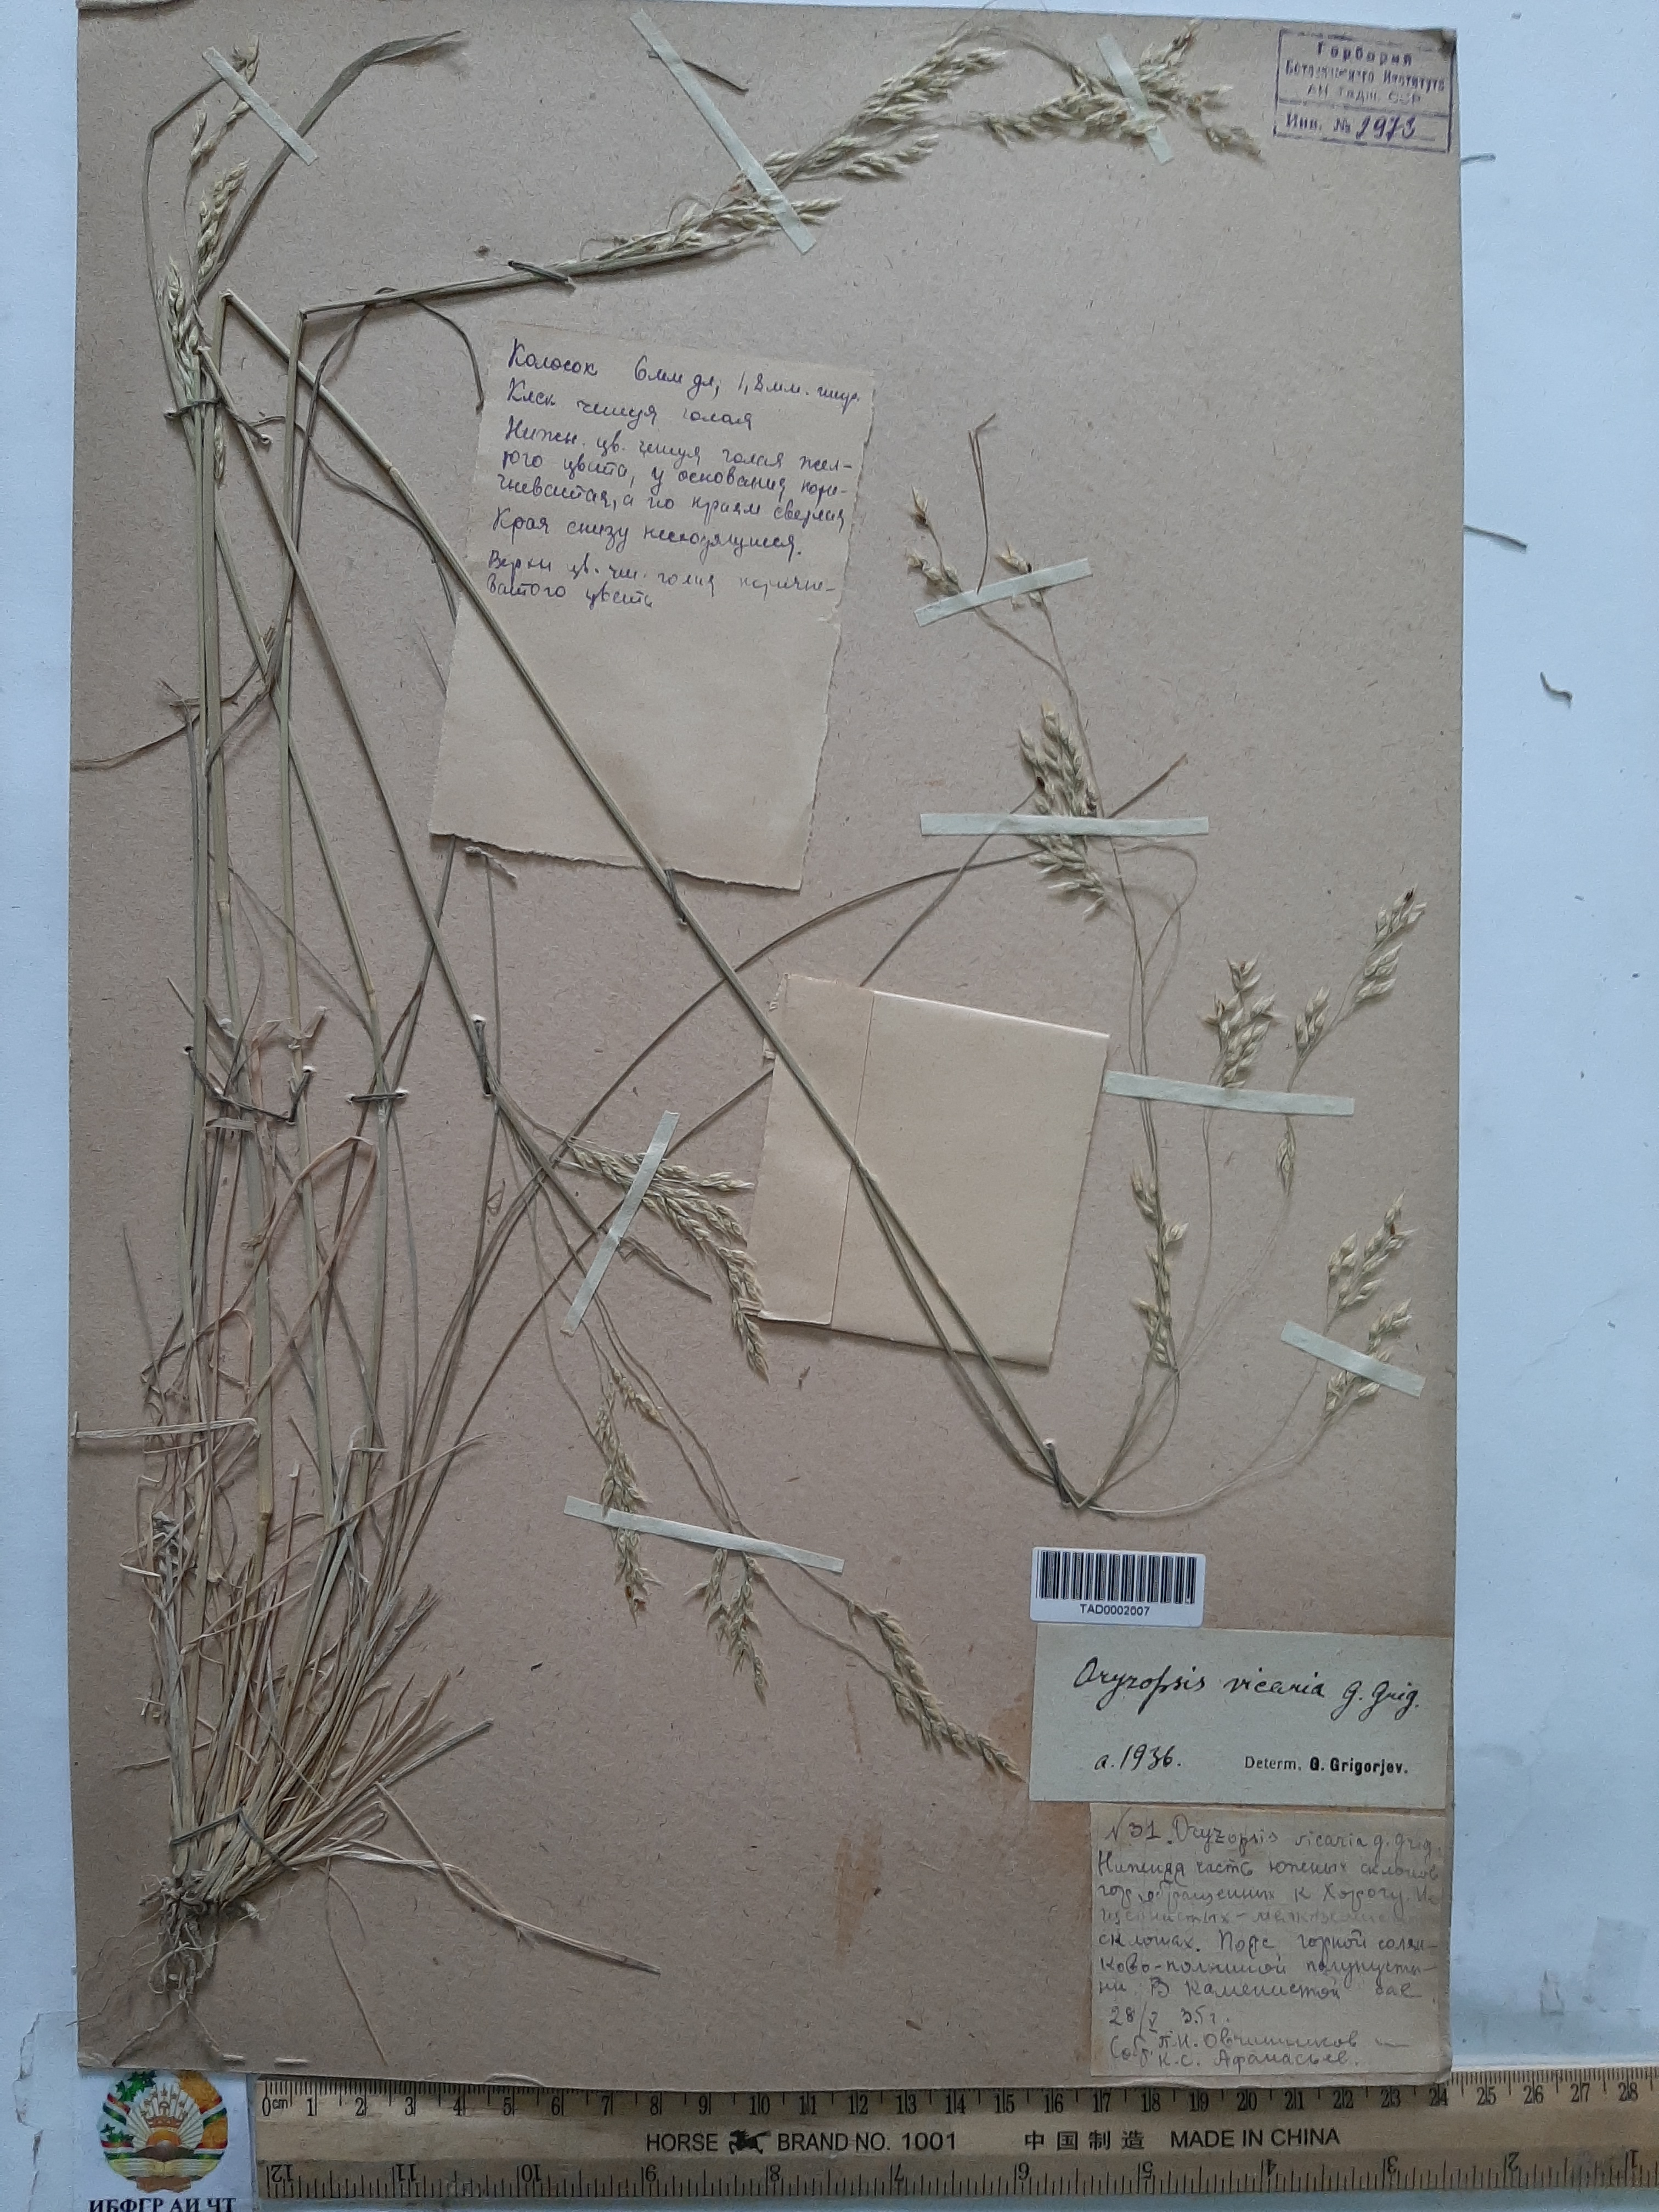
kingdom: Plantae
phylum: Tracheophyta
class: Liliopsida
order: Poales
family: Poaceae
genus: Piptatherum
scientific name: Piptatherum microcarpum
